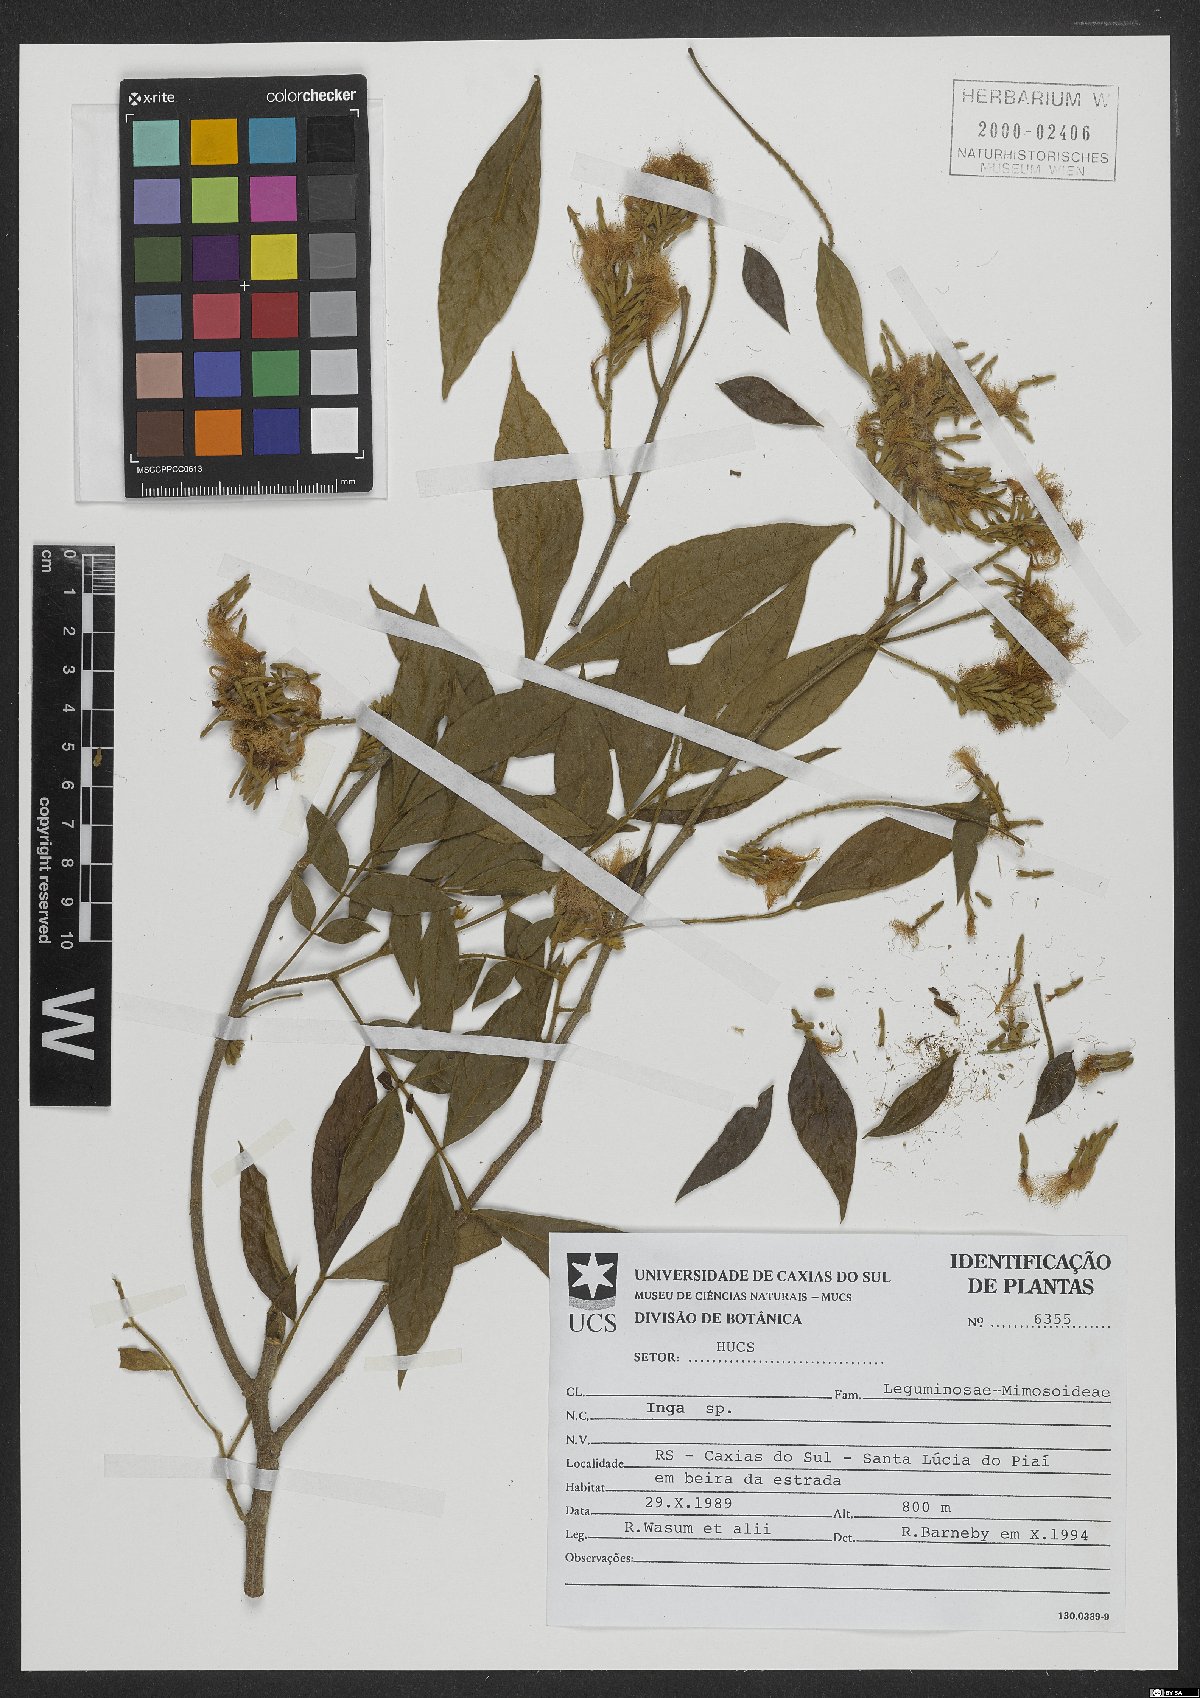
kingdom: Plantae
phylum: Tracheophyta
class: Magnoliopsida
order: Fabales
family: Fabaceae
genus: Inga
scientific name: Inga
